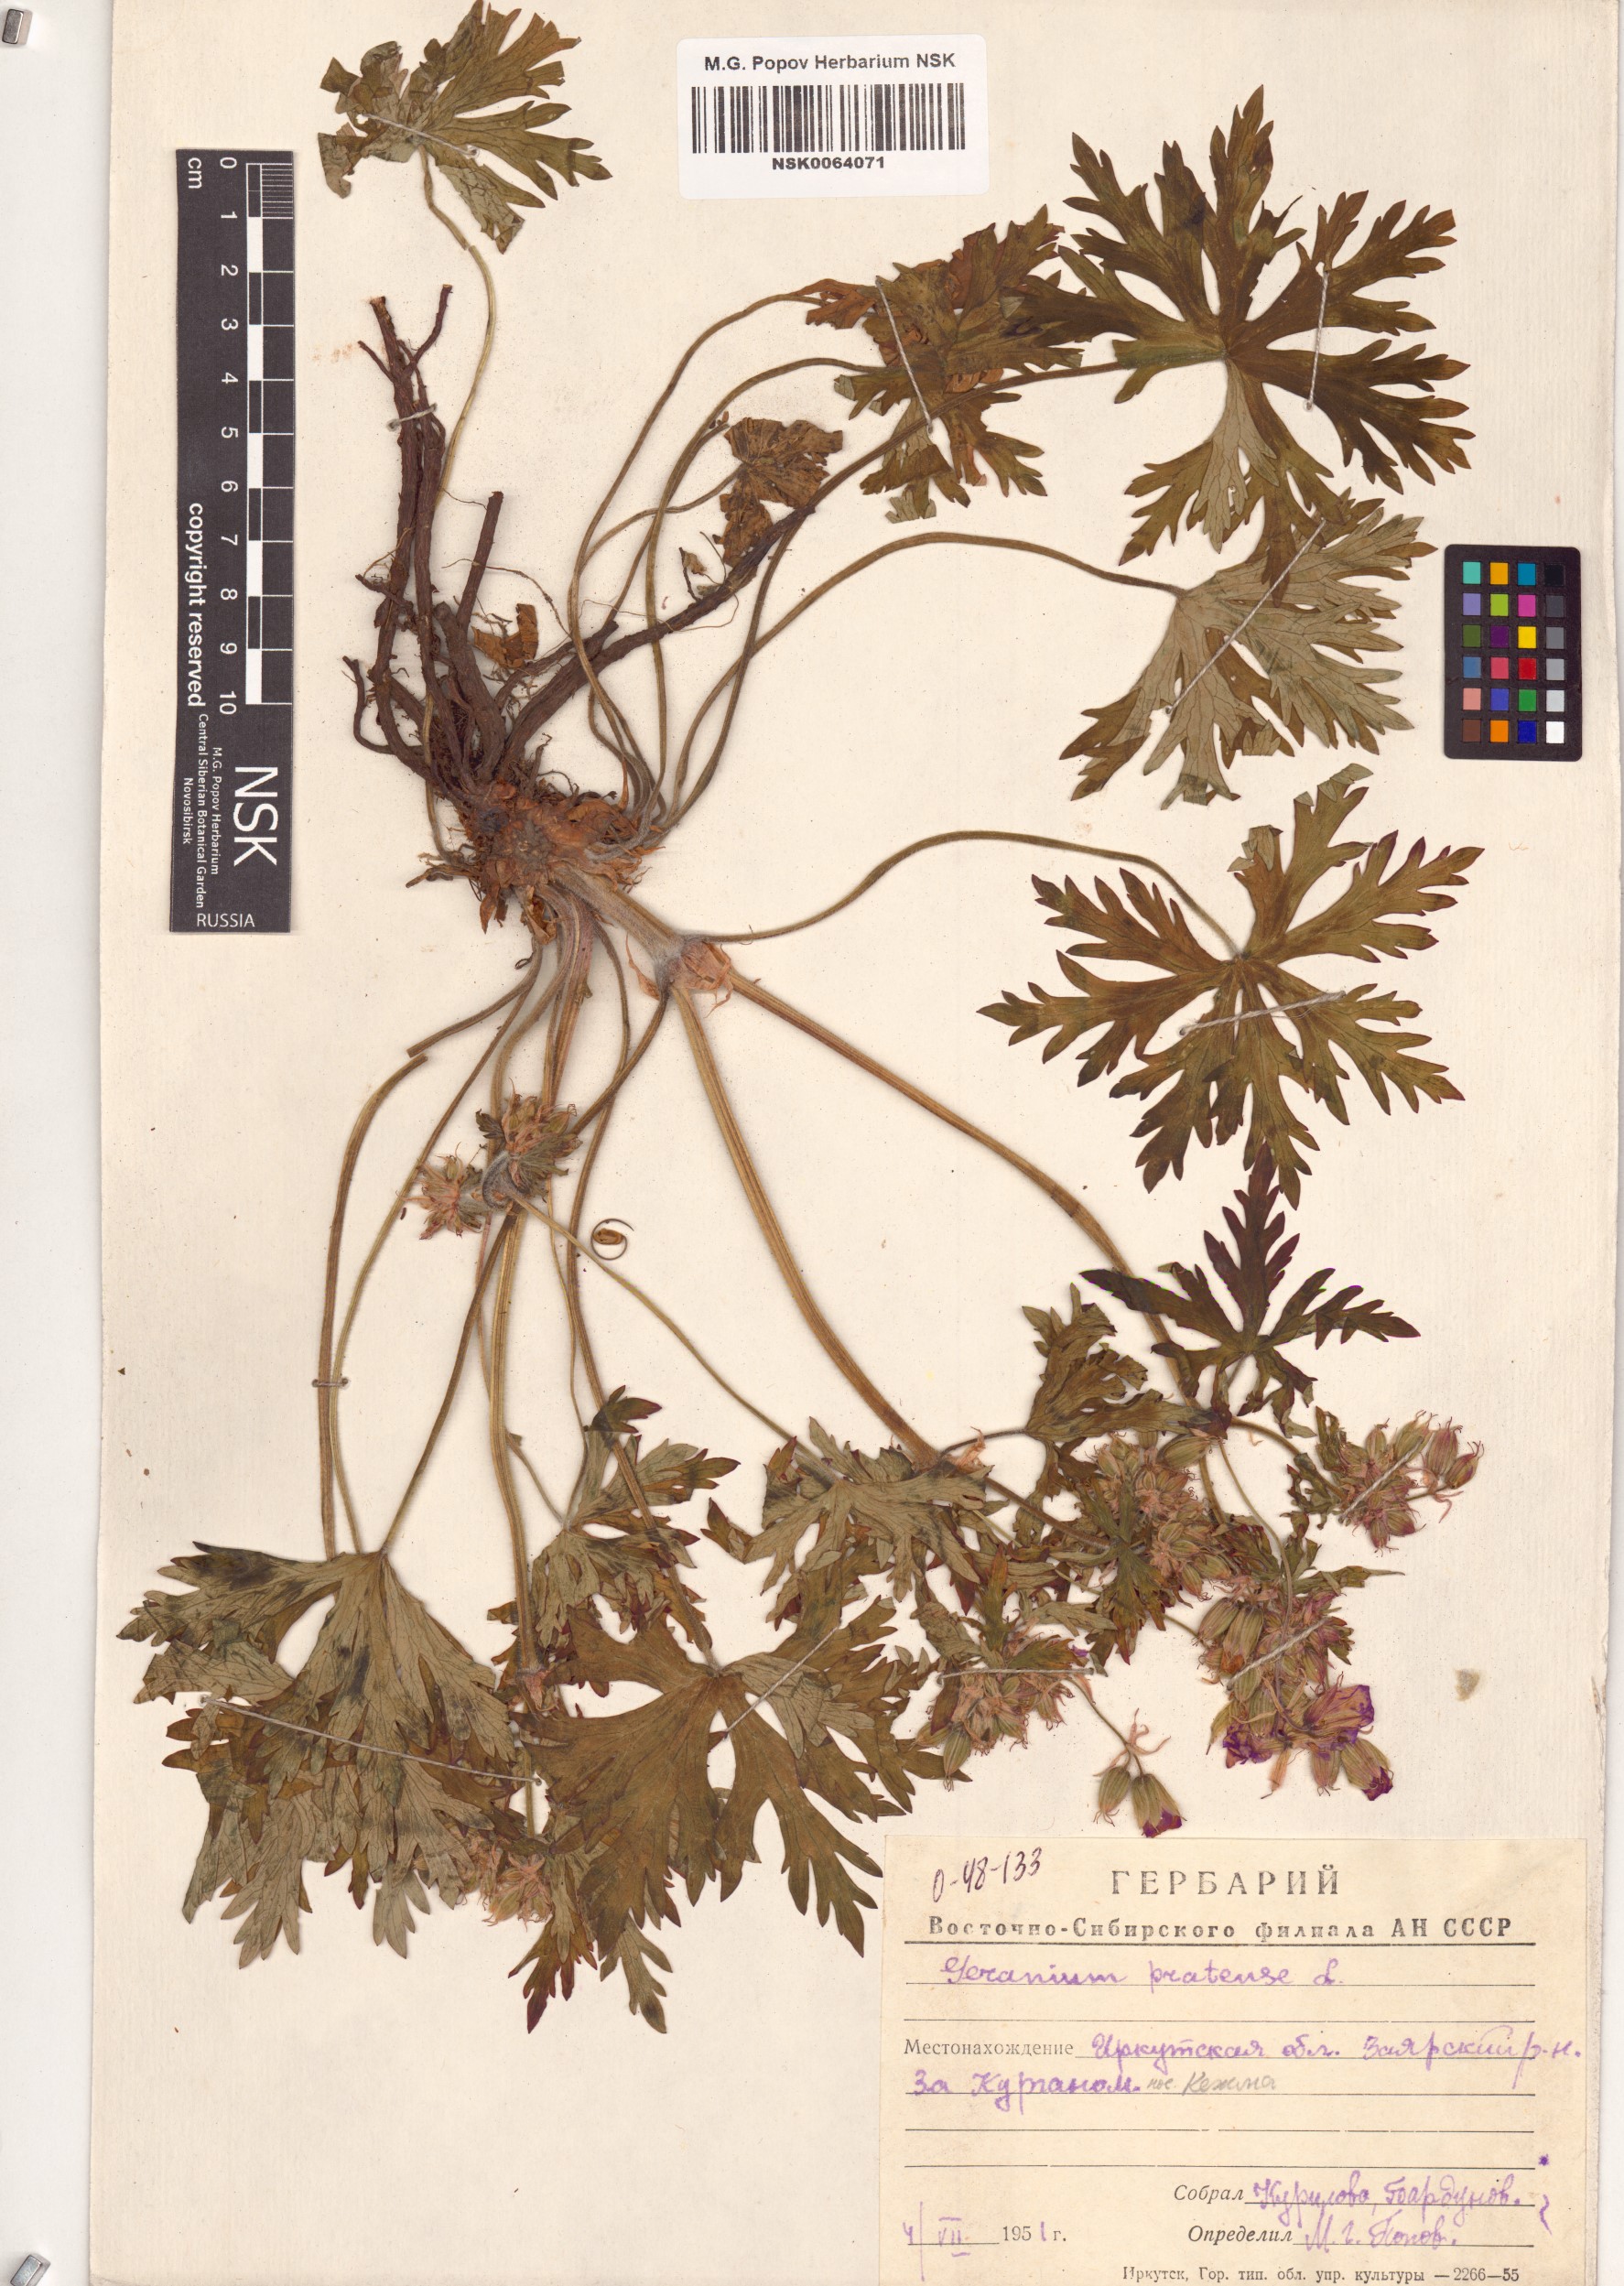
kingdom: Plantae
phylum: Tracheophyta
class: Magnoliopsida
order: Geraniales
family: Geraniaceae
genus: Geranium
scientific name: Geranium pratense
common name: Meadow crane's-bill
